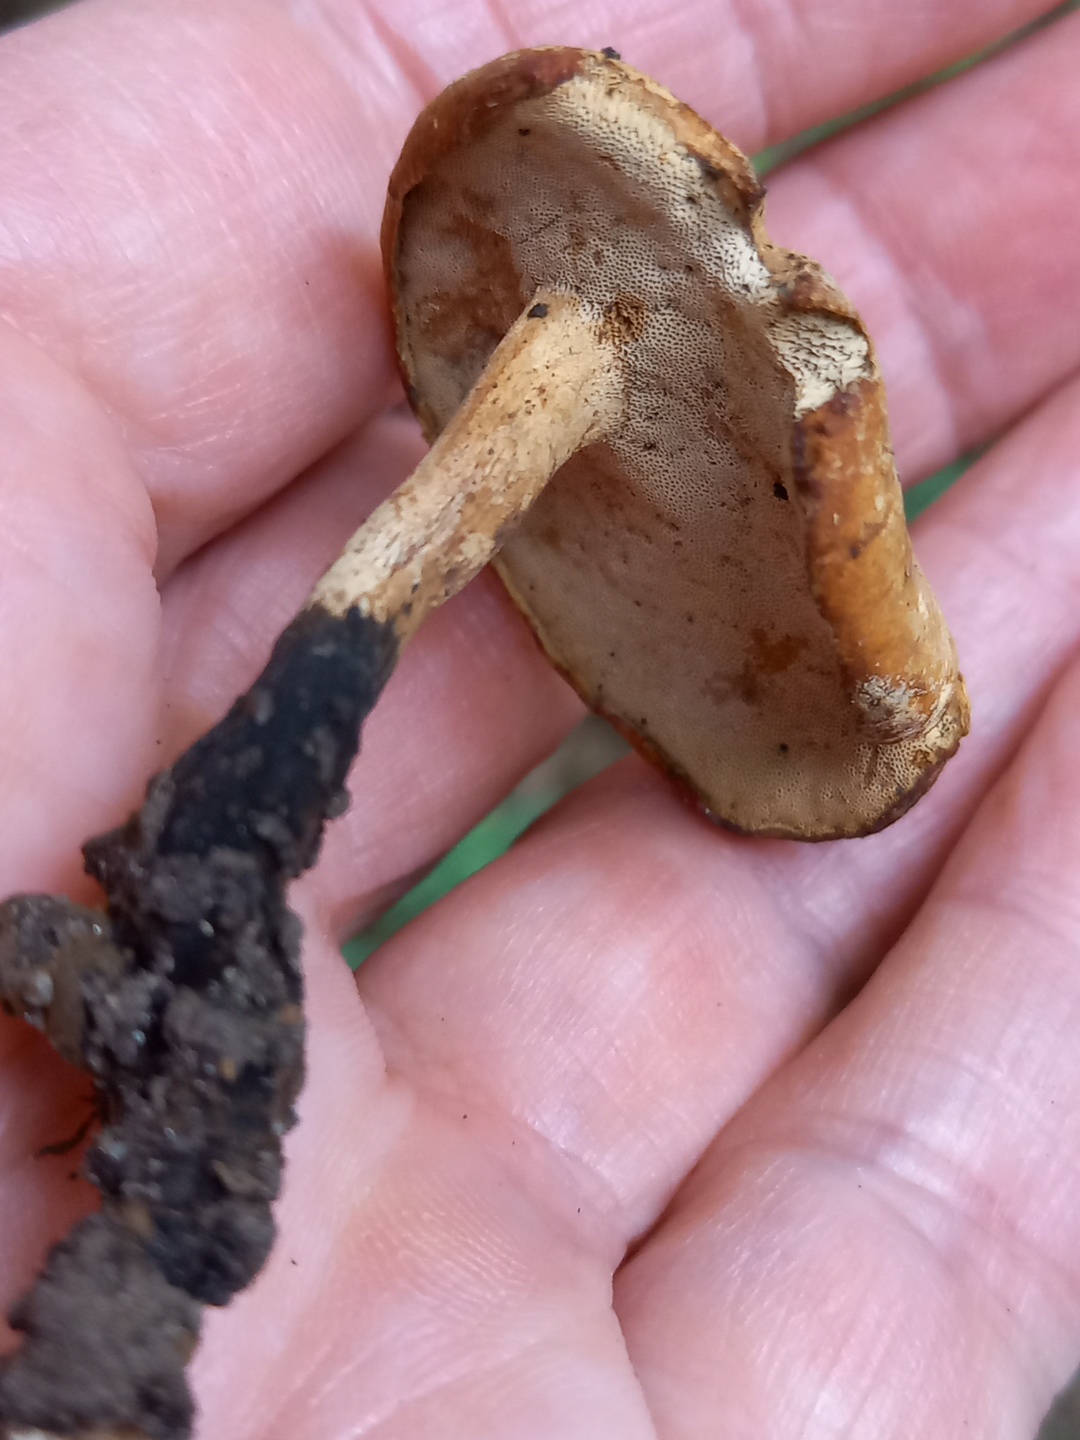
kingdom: Fungi
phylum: Basidiomycota
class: Agaricomycetes
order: Polyporales
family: Polyporaceae
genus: Cerioporus
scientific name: Cerioporus varius
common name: foranderlig stilkporesvamp
